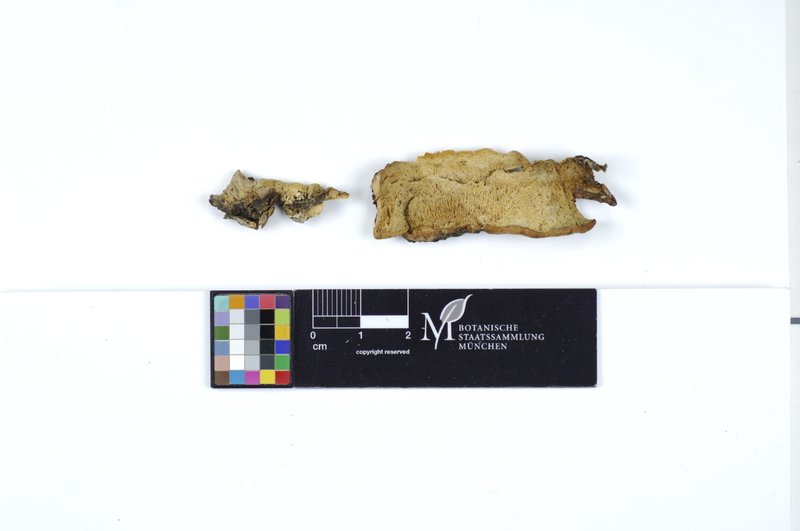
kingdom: Fungi
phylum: Basidiomycota
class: Agaricomycetes
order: Polyporales
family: Steccherinaceae
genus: Antrodiella
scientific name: Antrodiella semisupina
